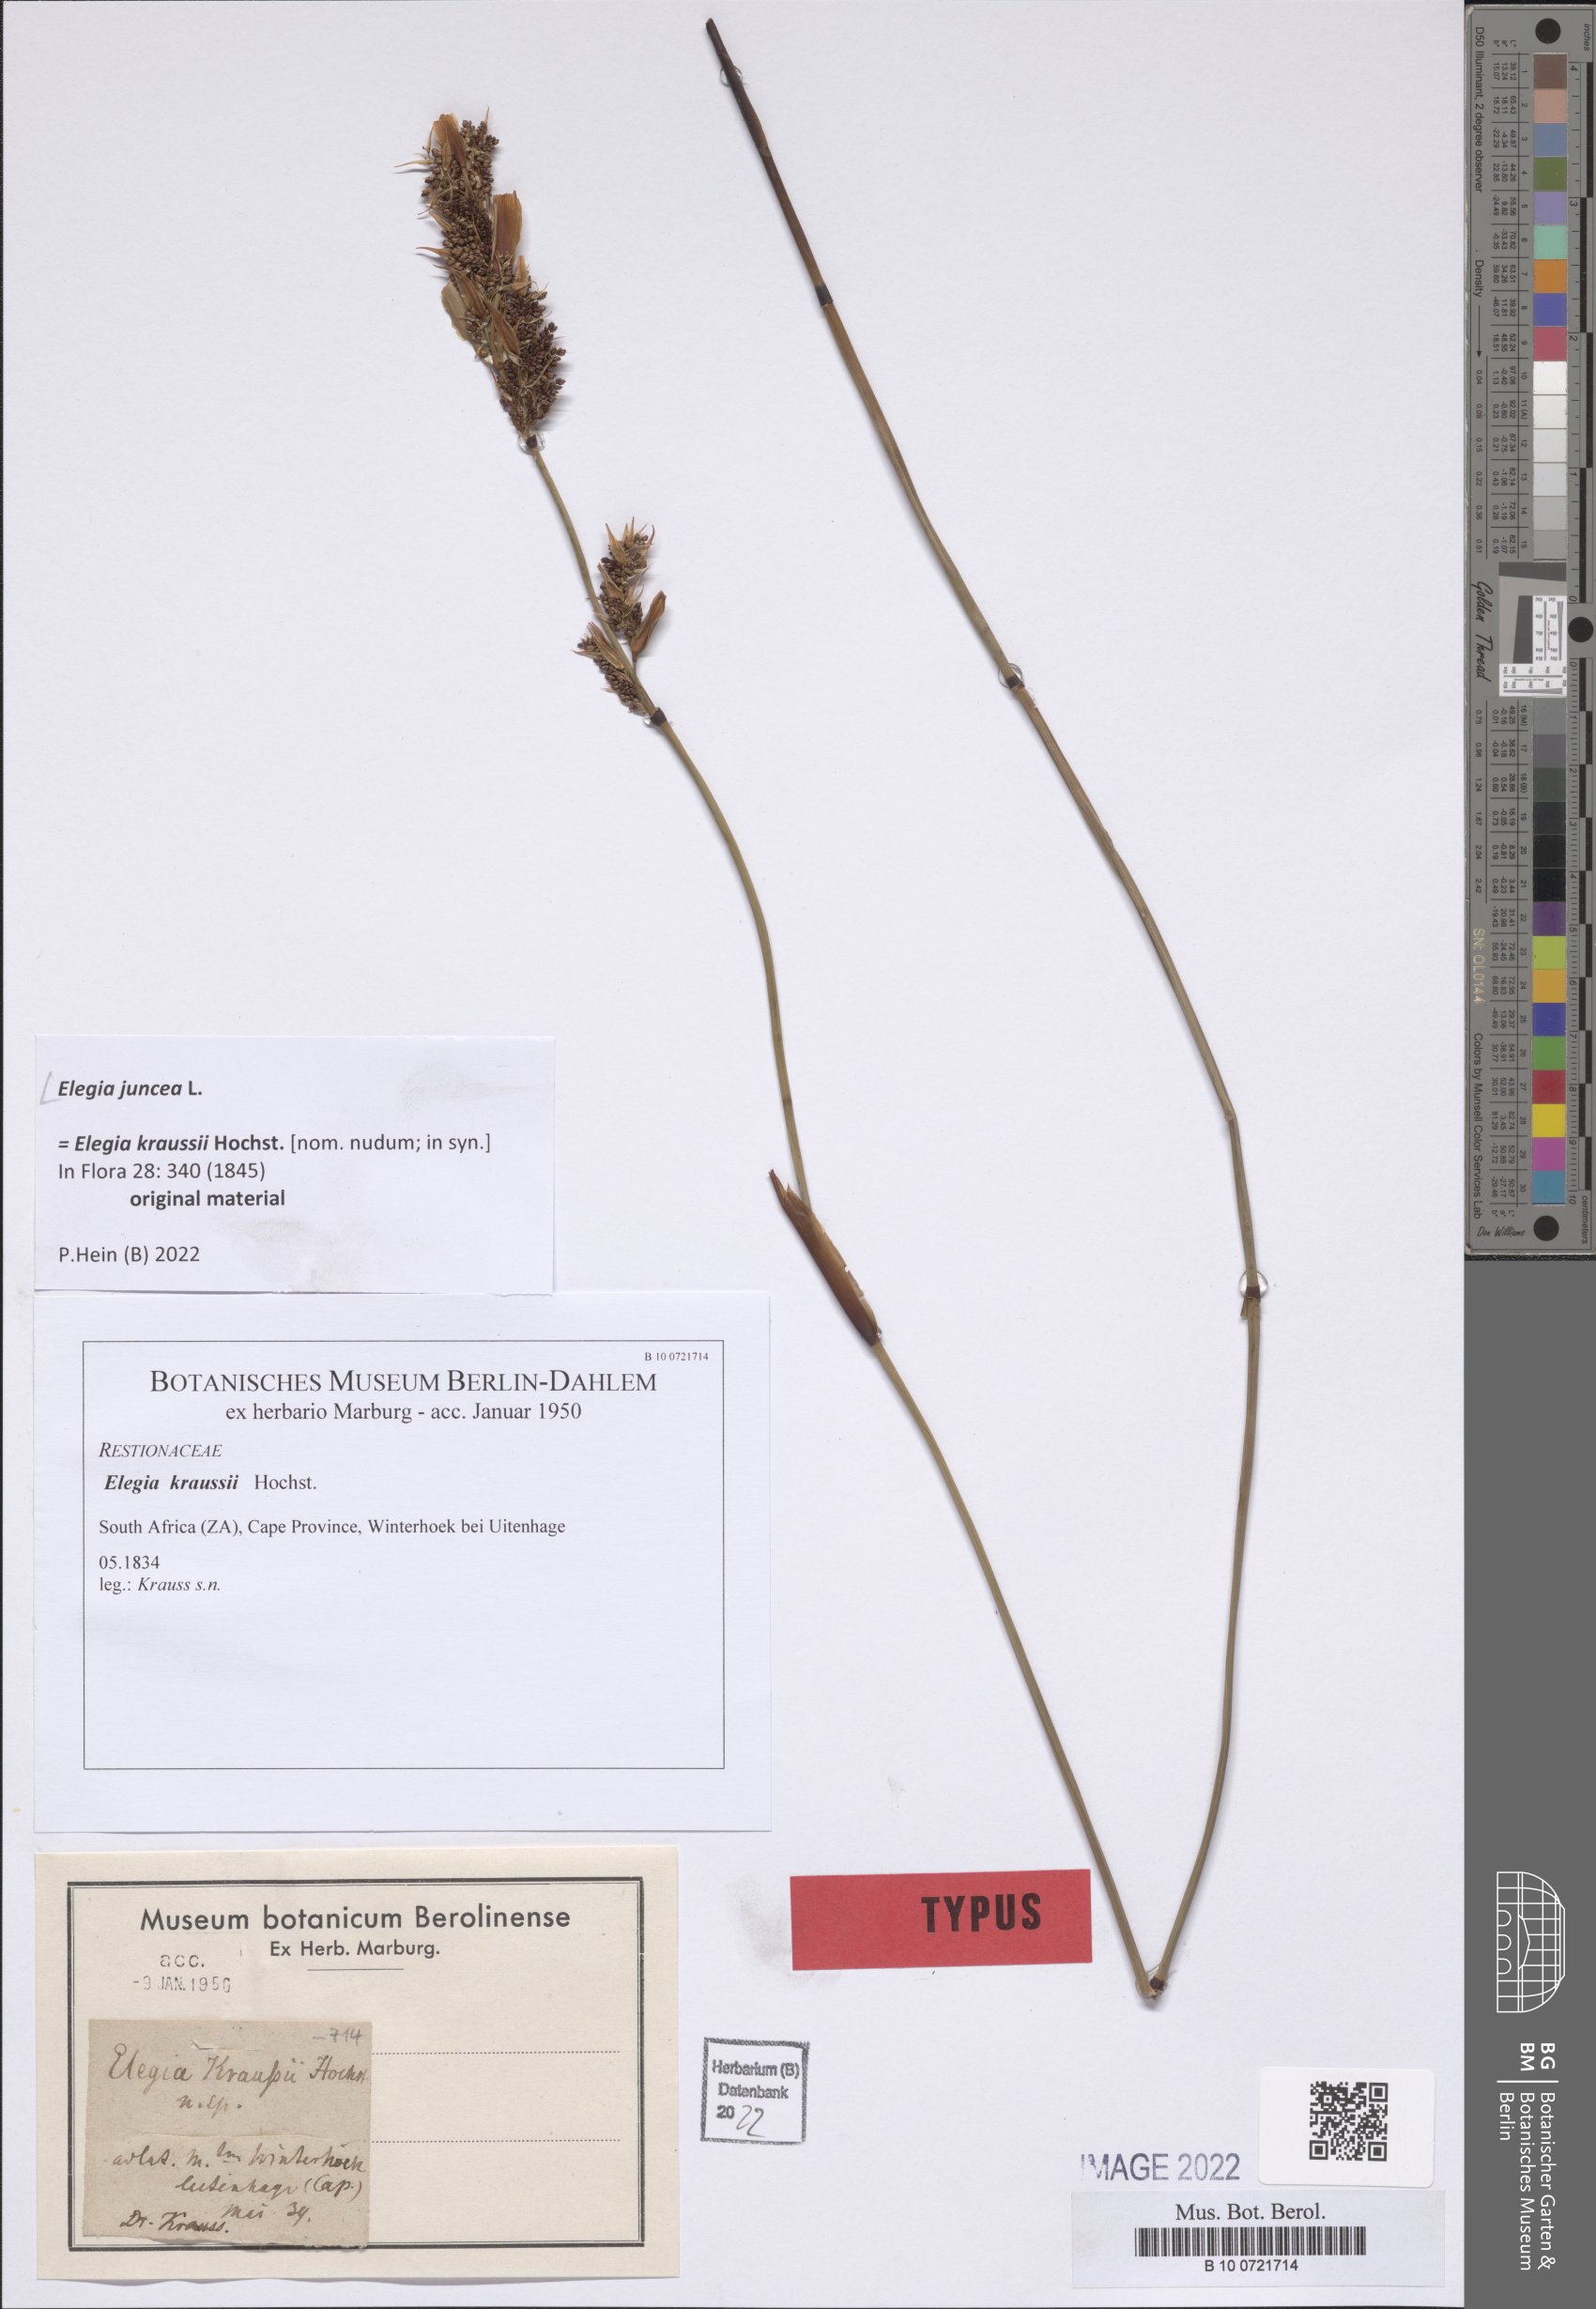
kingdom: Plantae
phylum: Tracheophyta
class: Liliopsida
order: Poales
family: Restionaceae
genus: Elegia
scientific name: Elegia juncea
